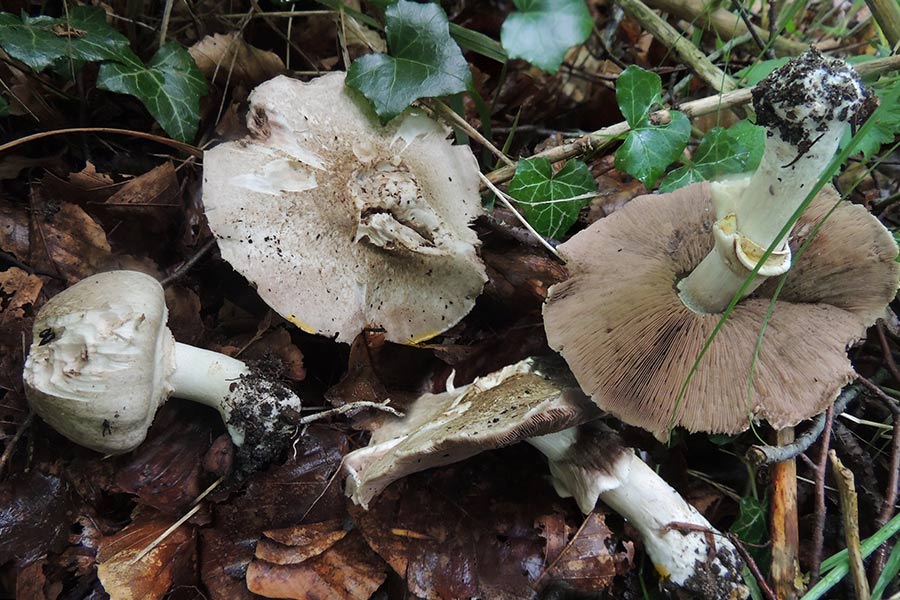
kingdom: Fungi
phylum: Basidiomycota
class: Agaricomycetes
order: Agaricales
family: Agaricaceae
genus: Agaricus
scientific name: Agaricus moelleri
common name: perlehøne-champignon
